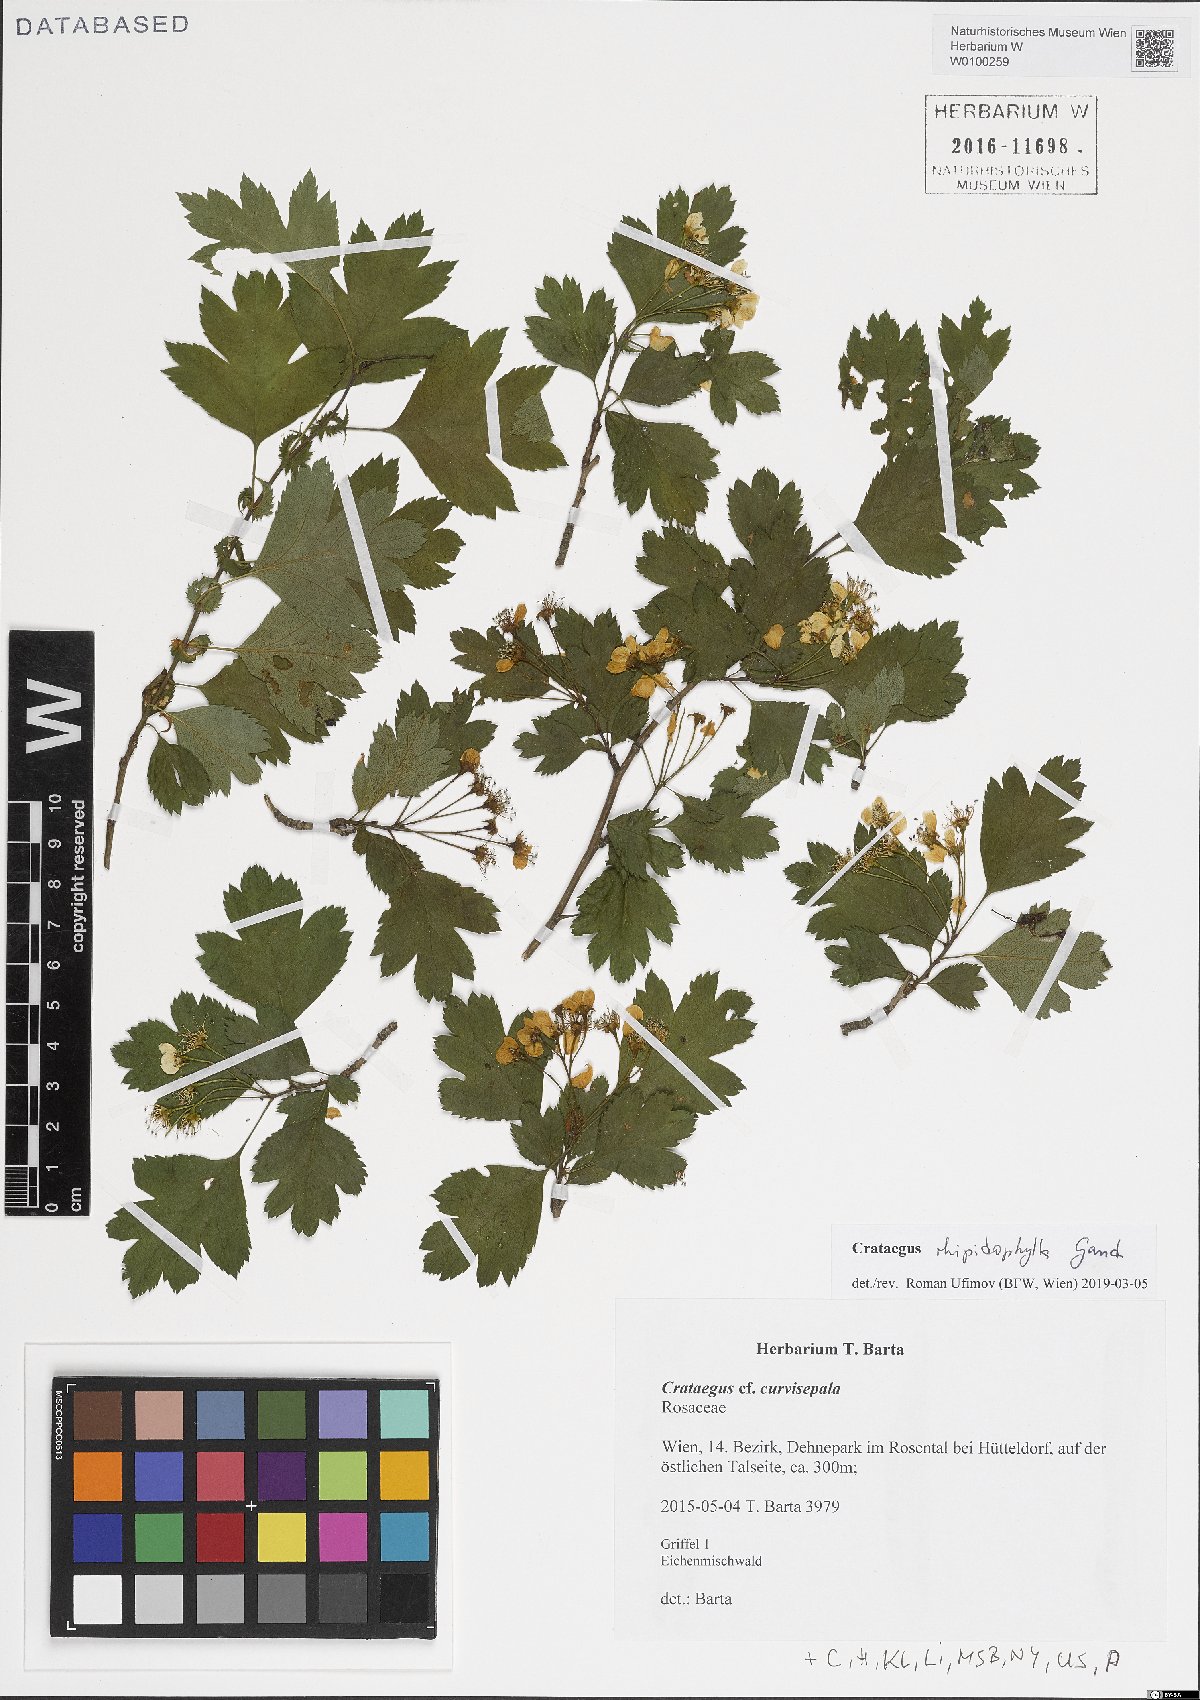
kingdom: Plantae
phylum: Tracheophyta
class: Magnoliopsida
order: Rosales
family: Rosaceae
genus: Crataegus
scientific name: Crataegus rhipidophylla
